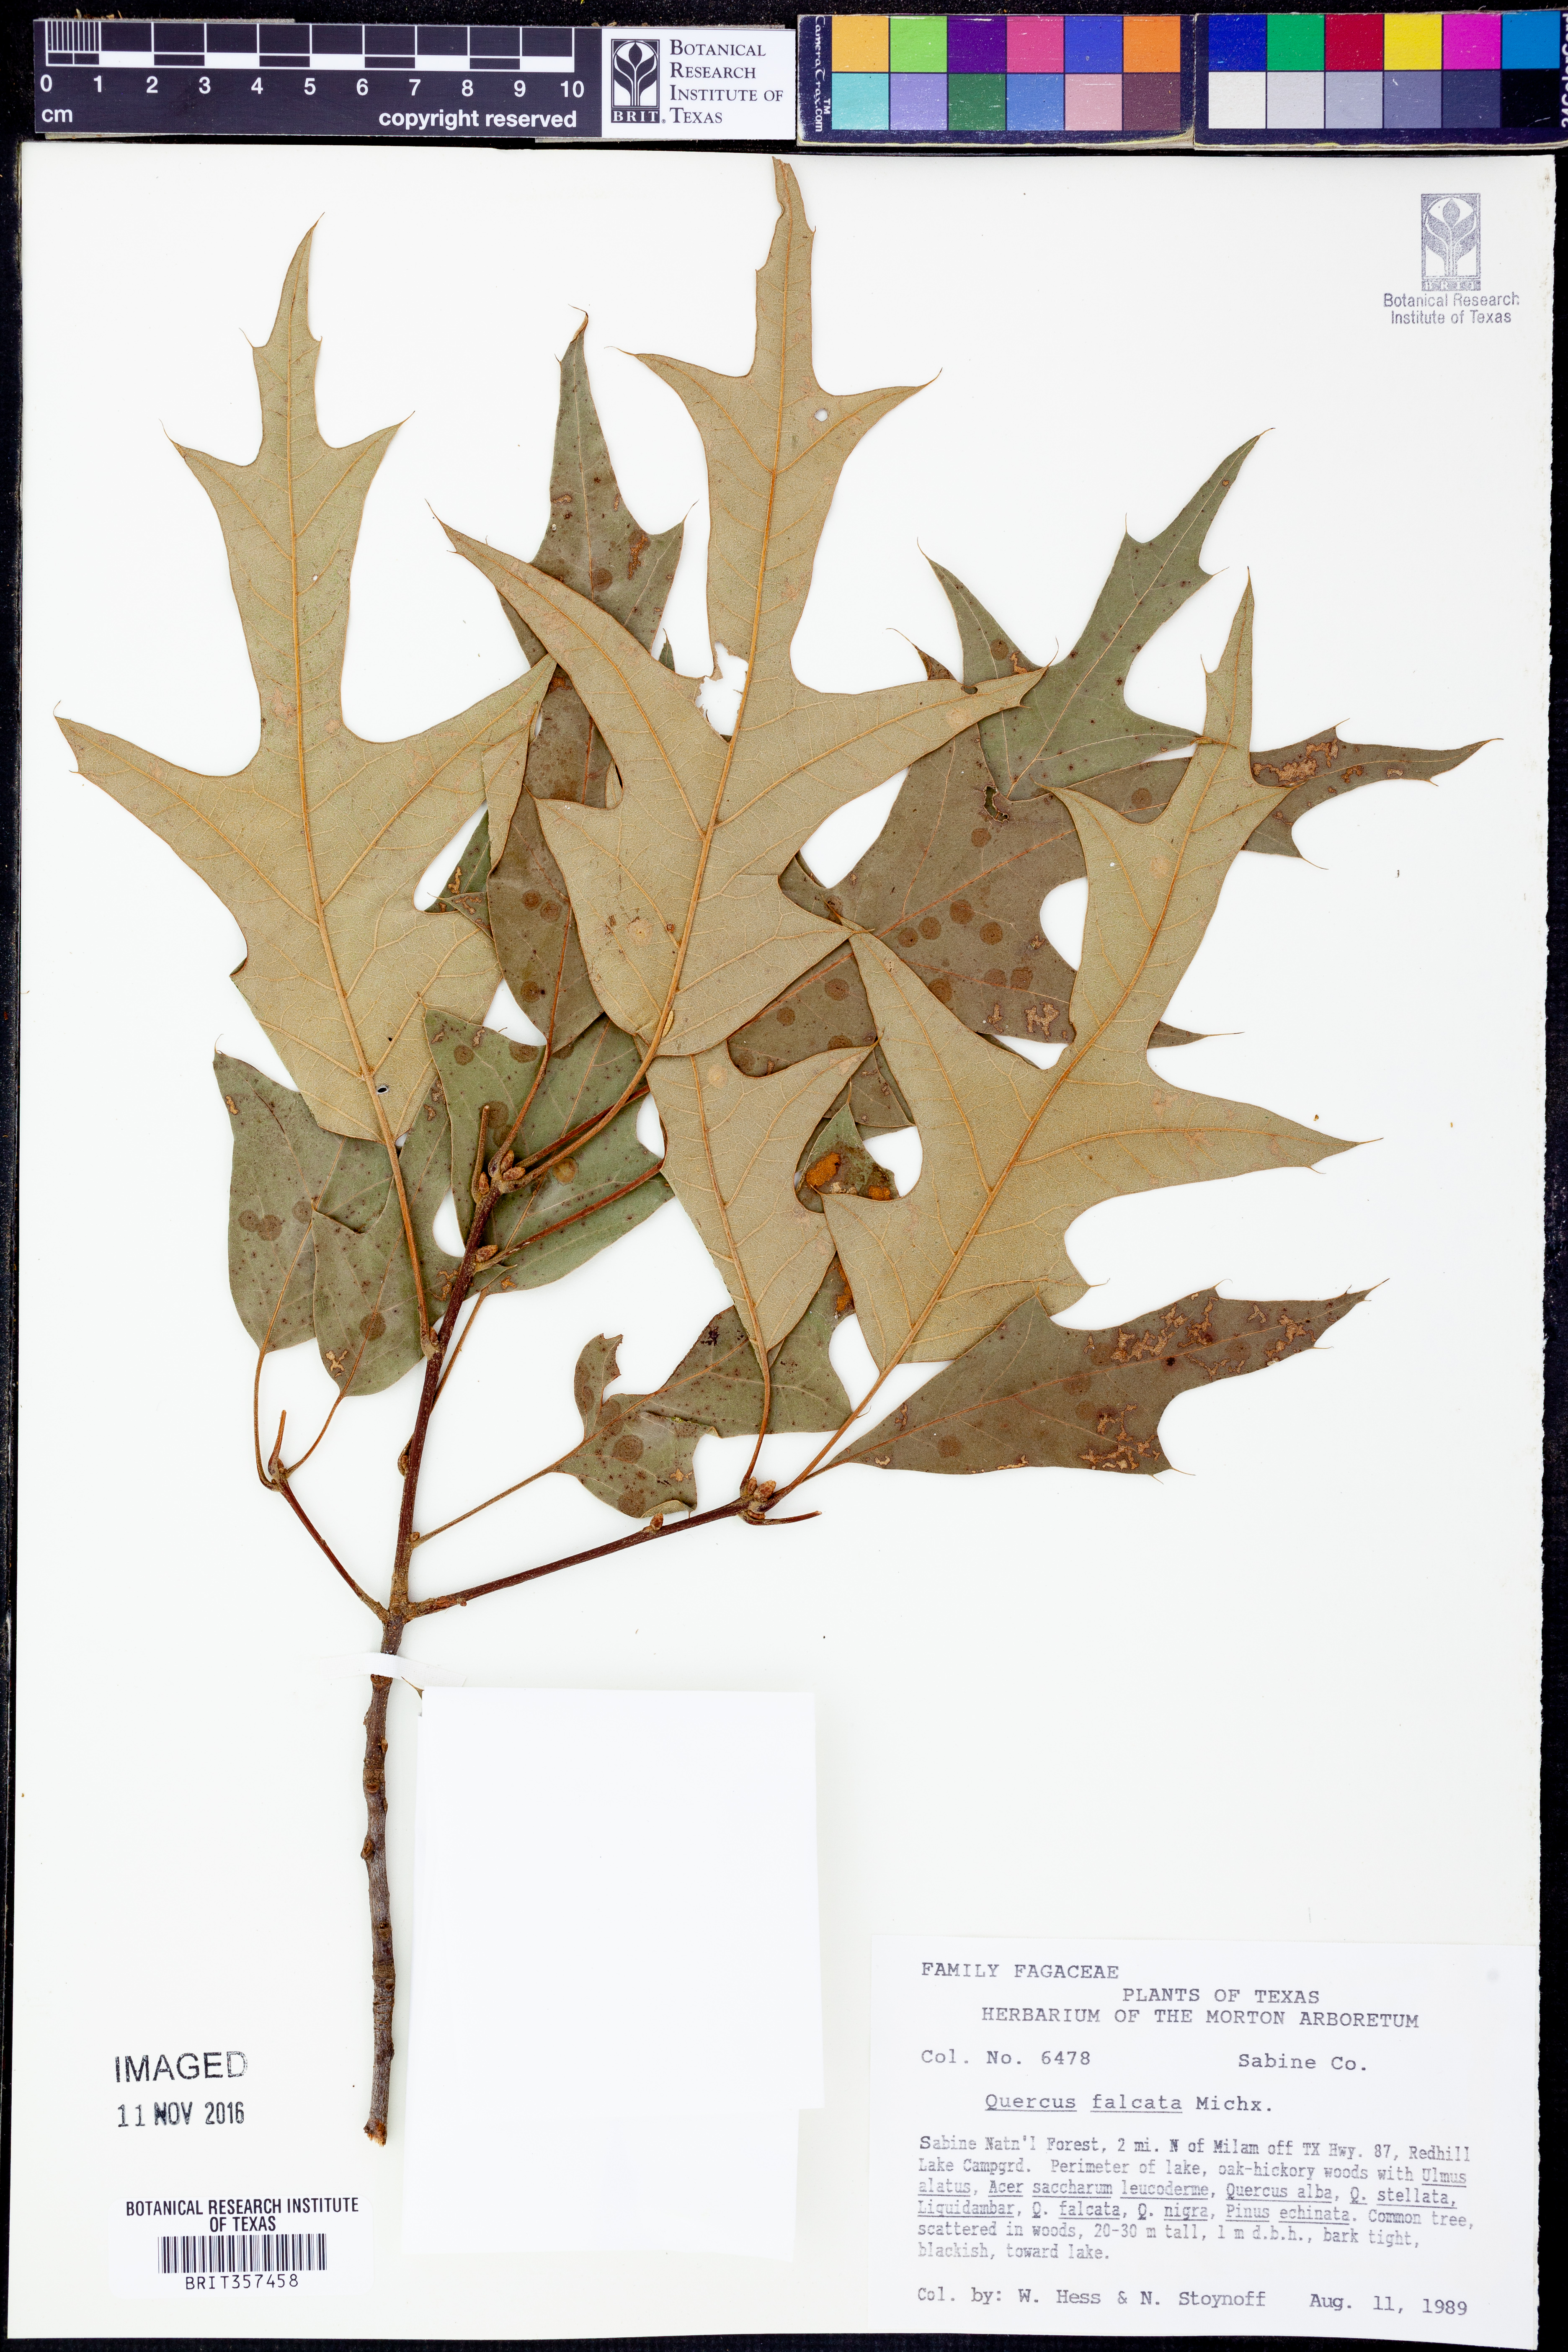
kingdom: Plantae
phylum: Tracheophyta
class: Magnoliopsida
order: Fagales
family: Fagaceae
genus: Quercus
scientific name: Quercus falcata
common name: Southern red oak
